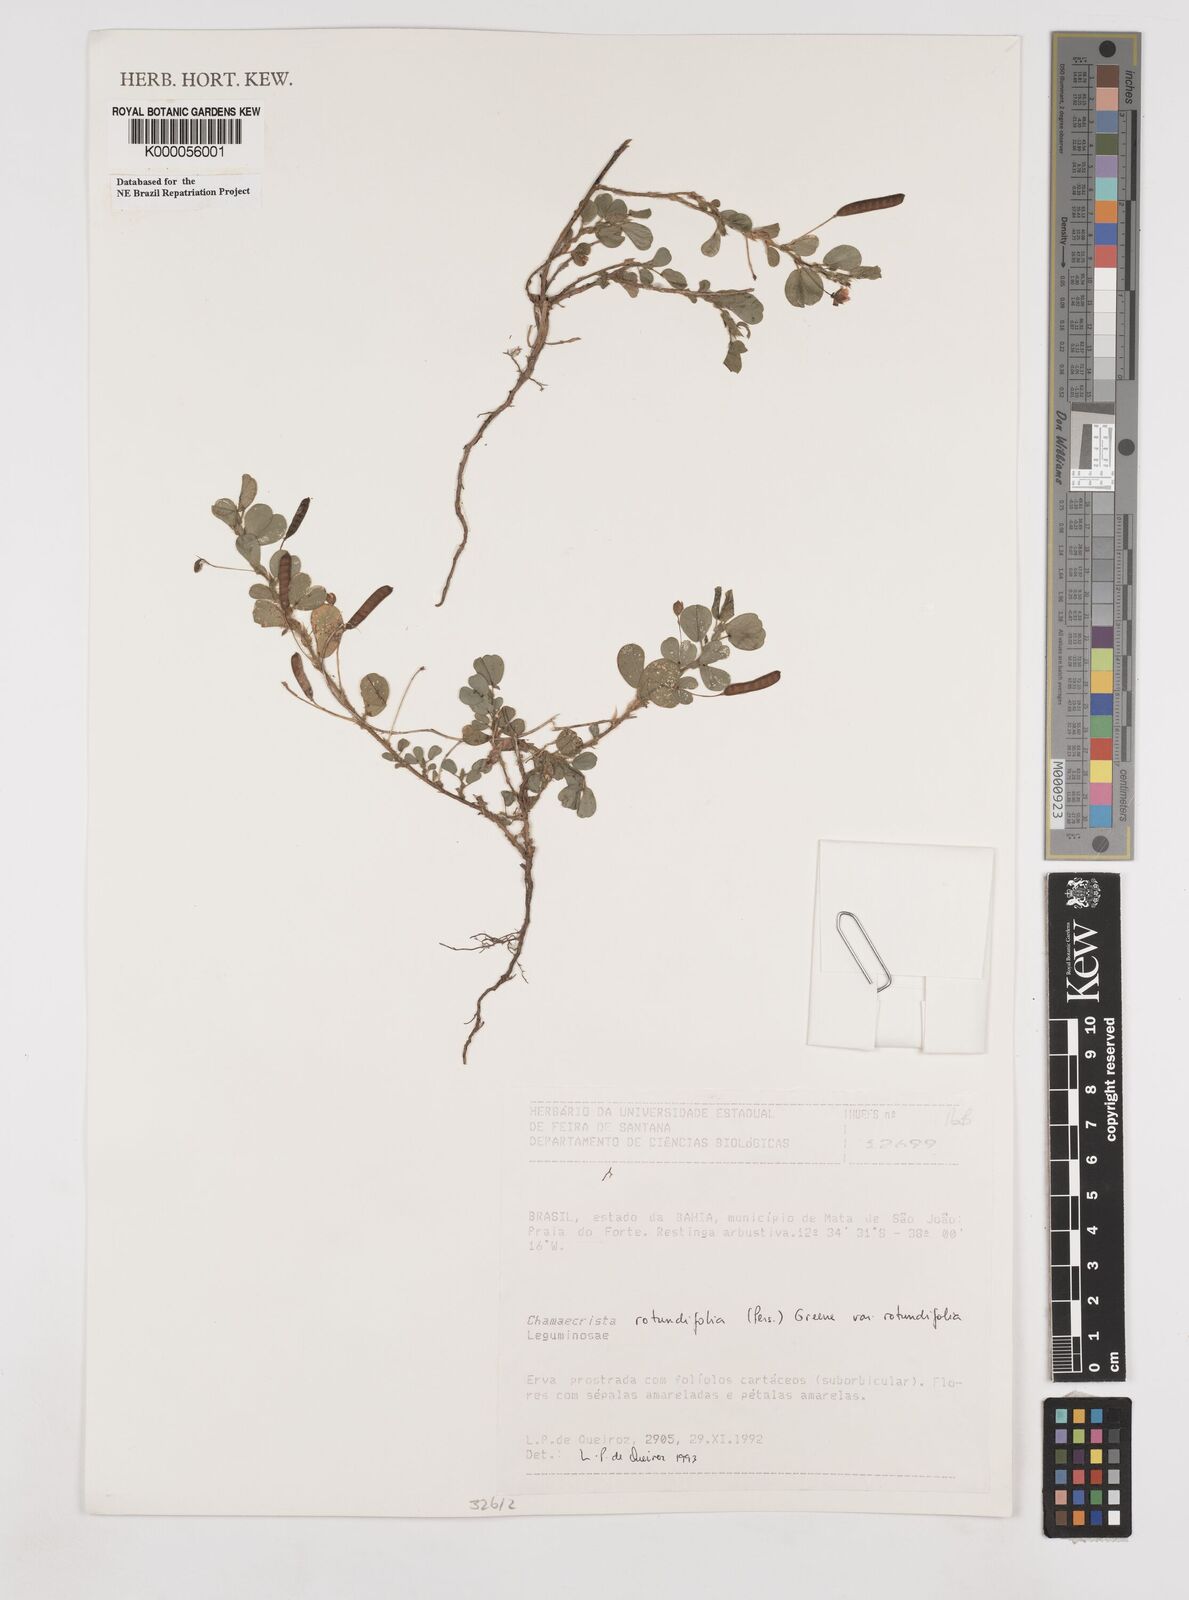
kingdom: Plantae
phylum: Tracheophyta
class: Magnoliopsida
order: Fabales
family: Fabaceae
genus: Chamaecrista
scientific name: Chamaecrista rotundifolia
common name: Round-leaf cassia
